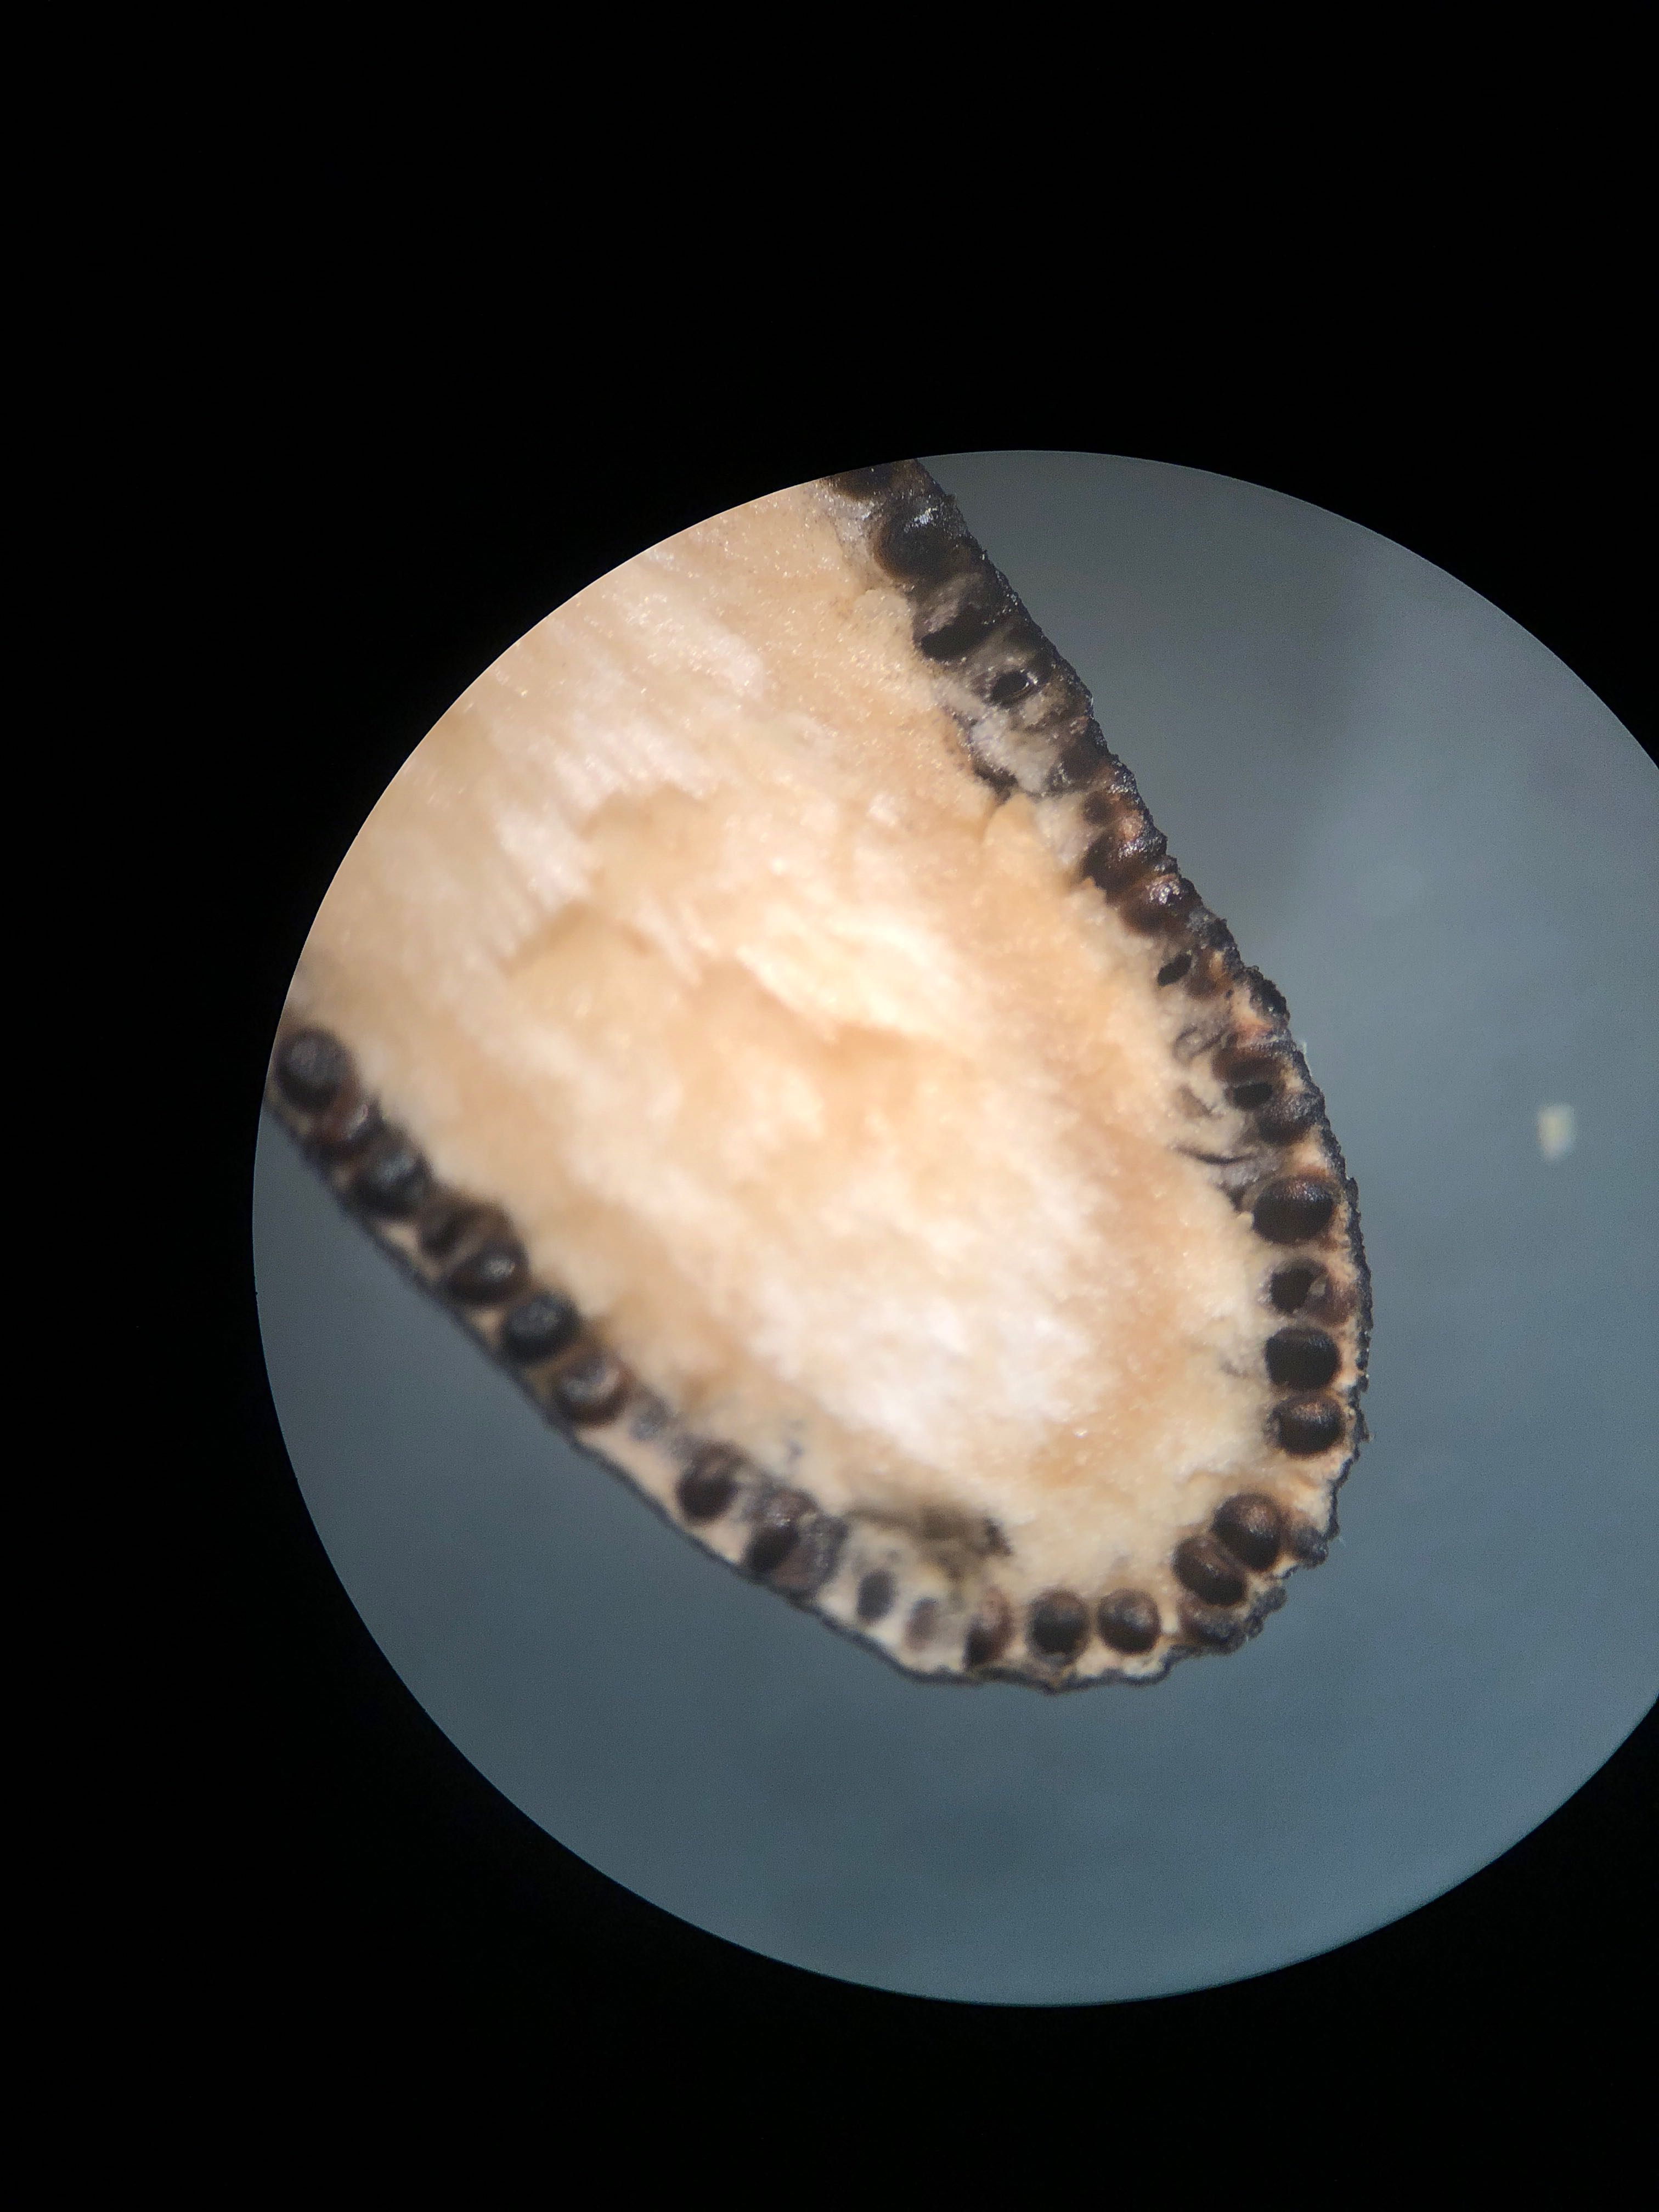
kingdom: Fungi
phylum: Ascomycota
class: Sordariomycetes
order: Xylariales
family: Xylariaceae
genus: Xylaria
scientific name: Xylaria longipes
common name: slank stødsvamp
